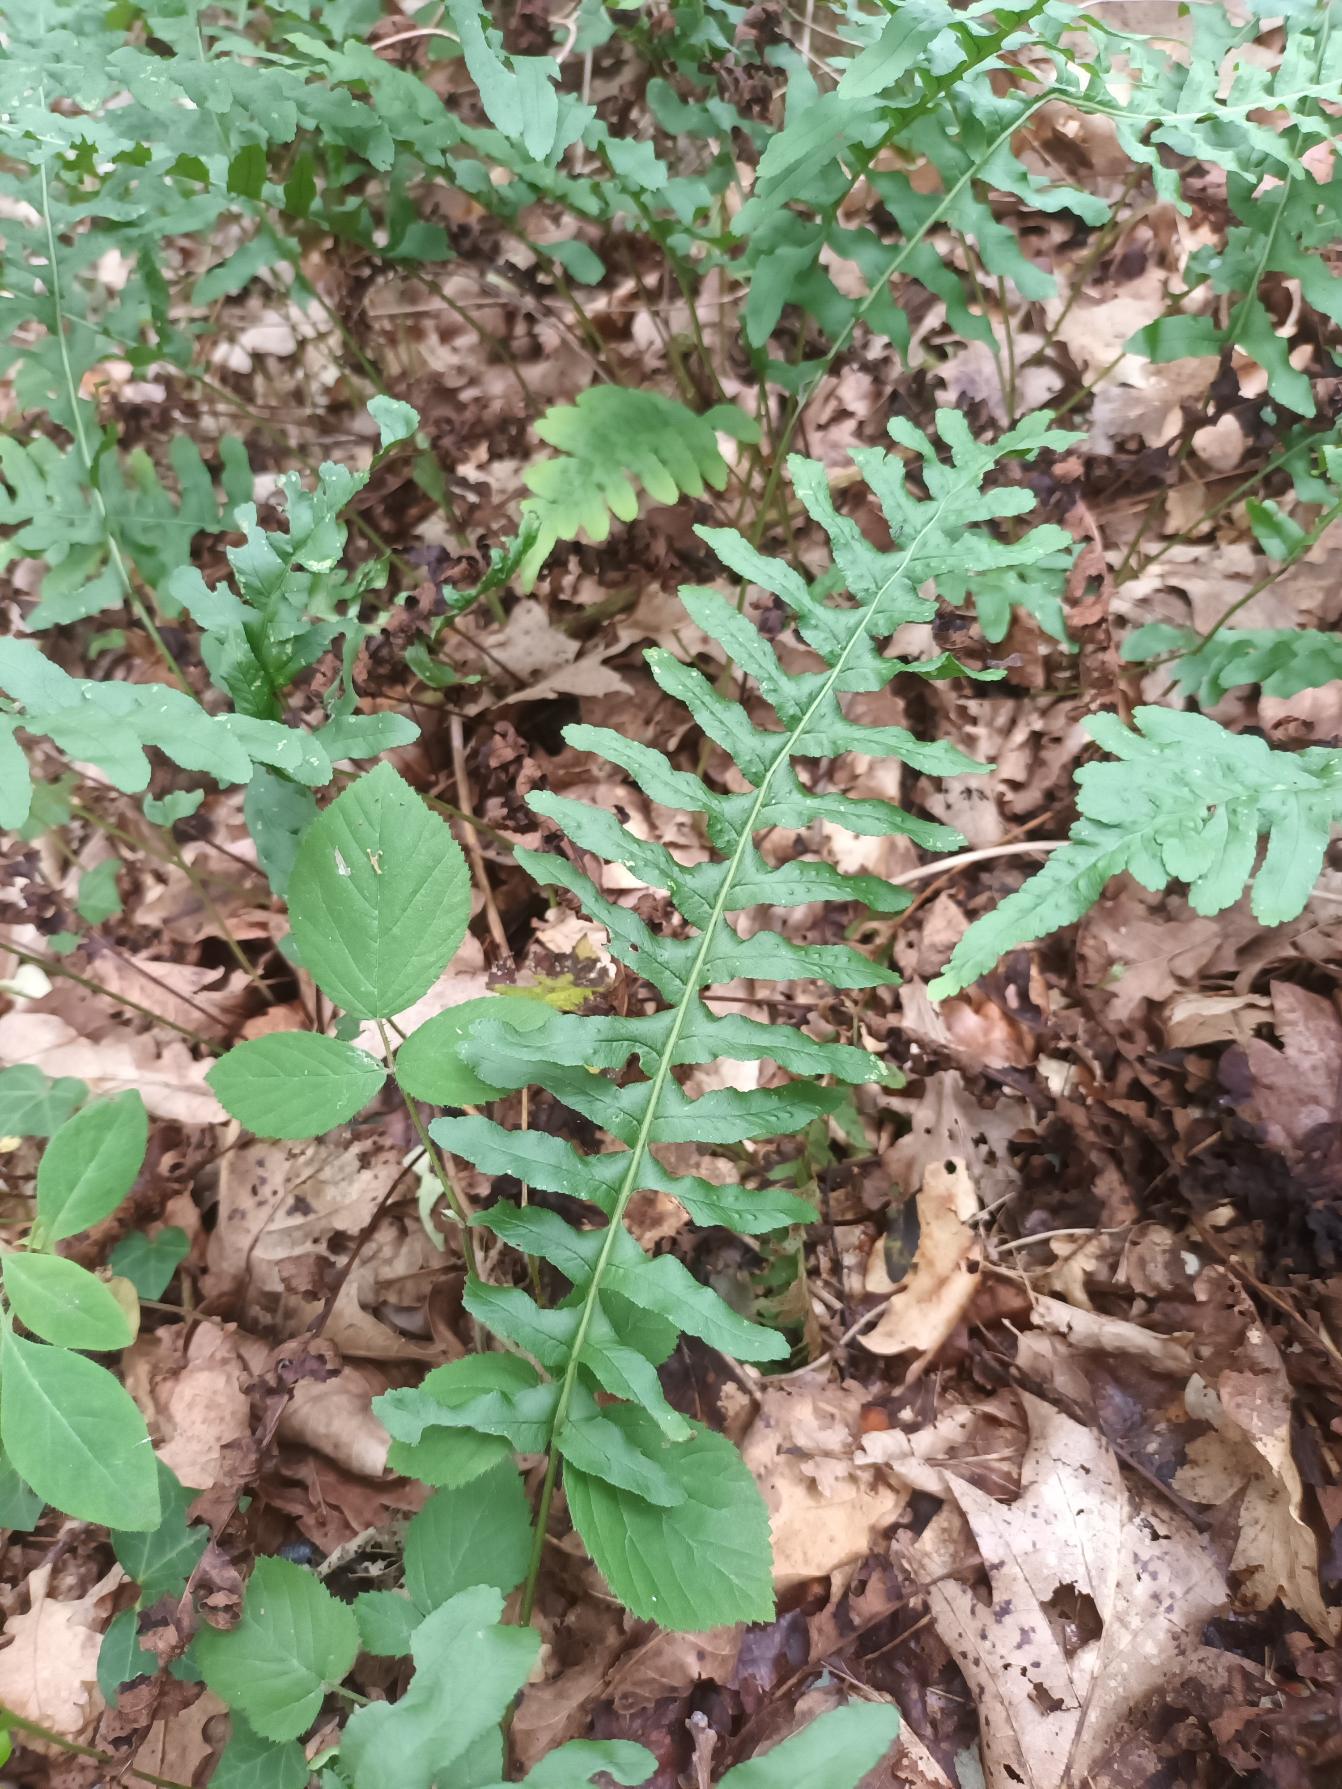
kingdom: Plantae
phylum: Tracheophyta
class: Polypodiopsida
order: Polypodiales
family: Polypodiaceae
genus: Polypodium
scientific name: Polypodium vulgare
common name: Almindelig engelsød
